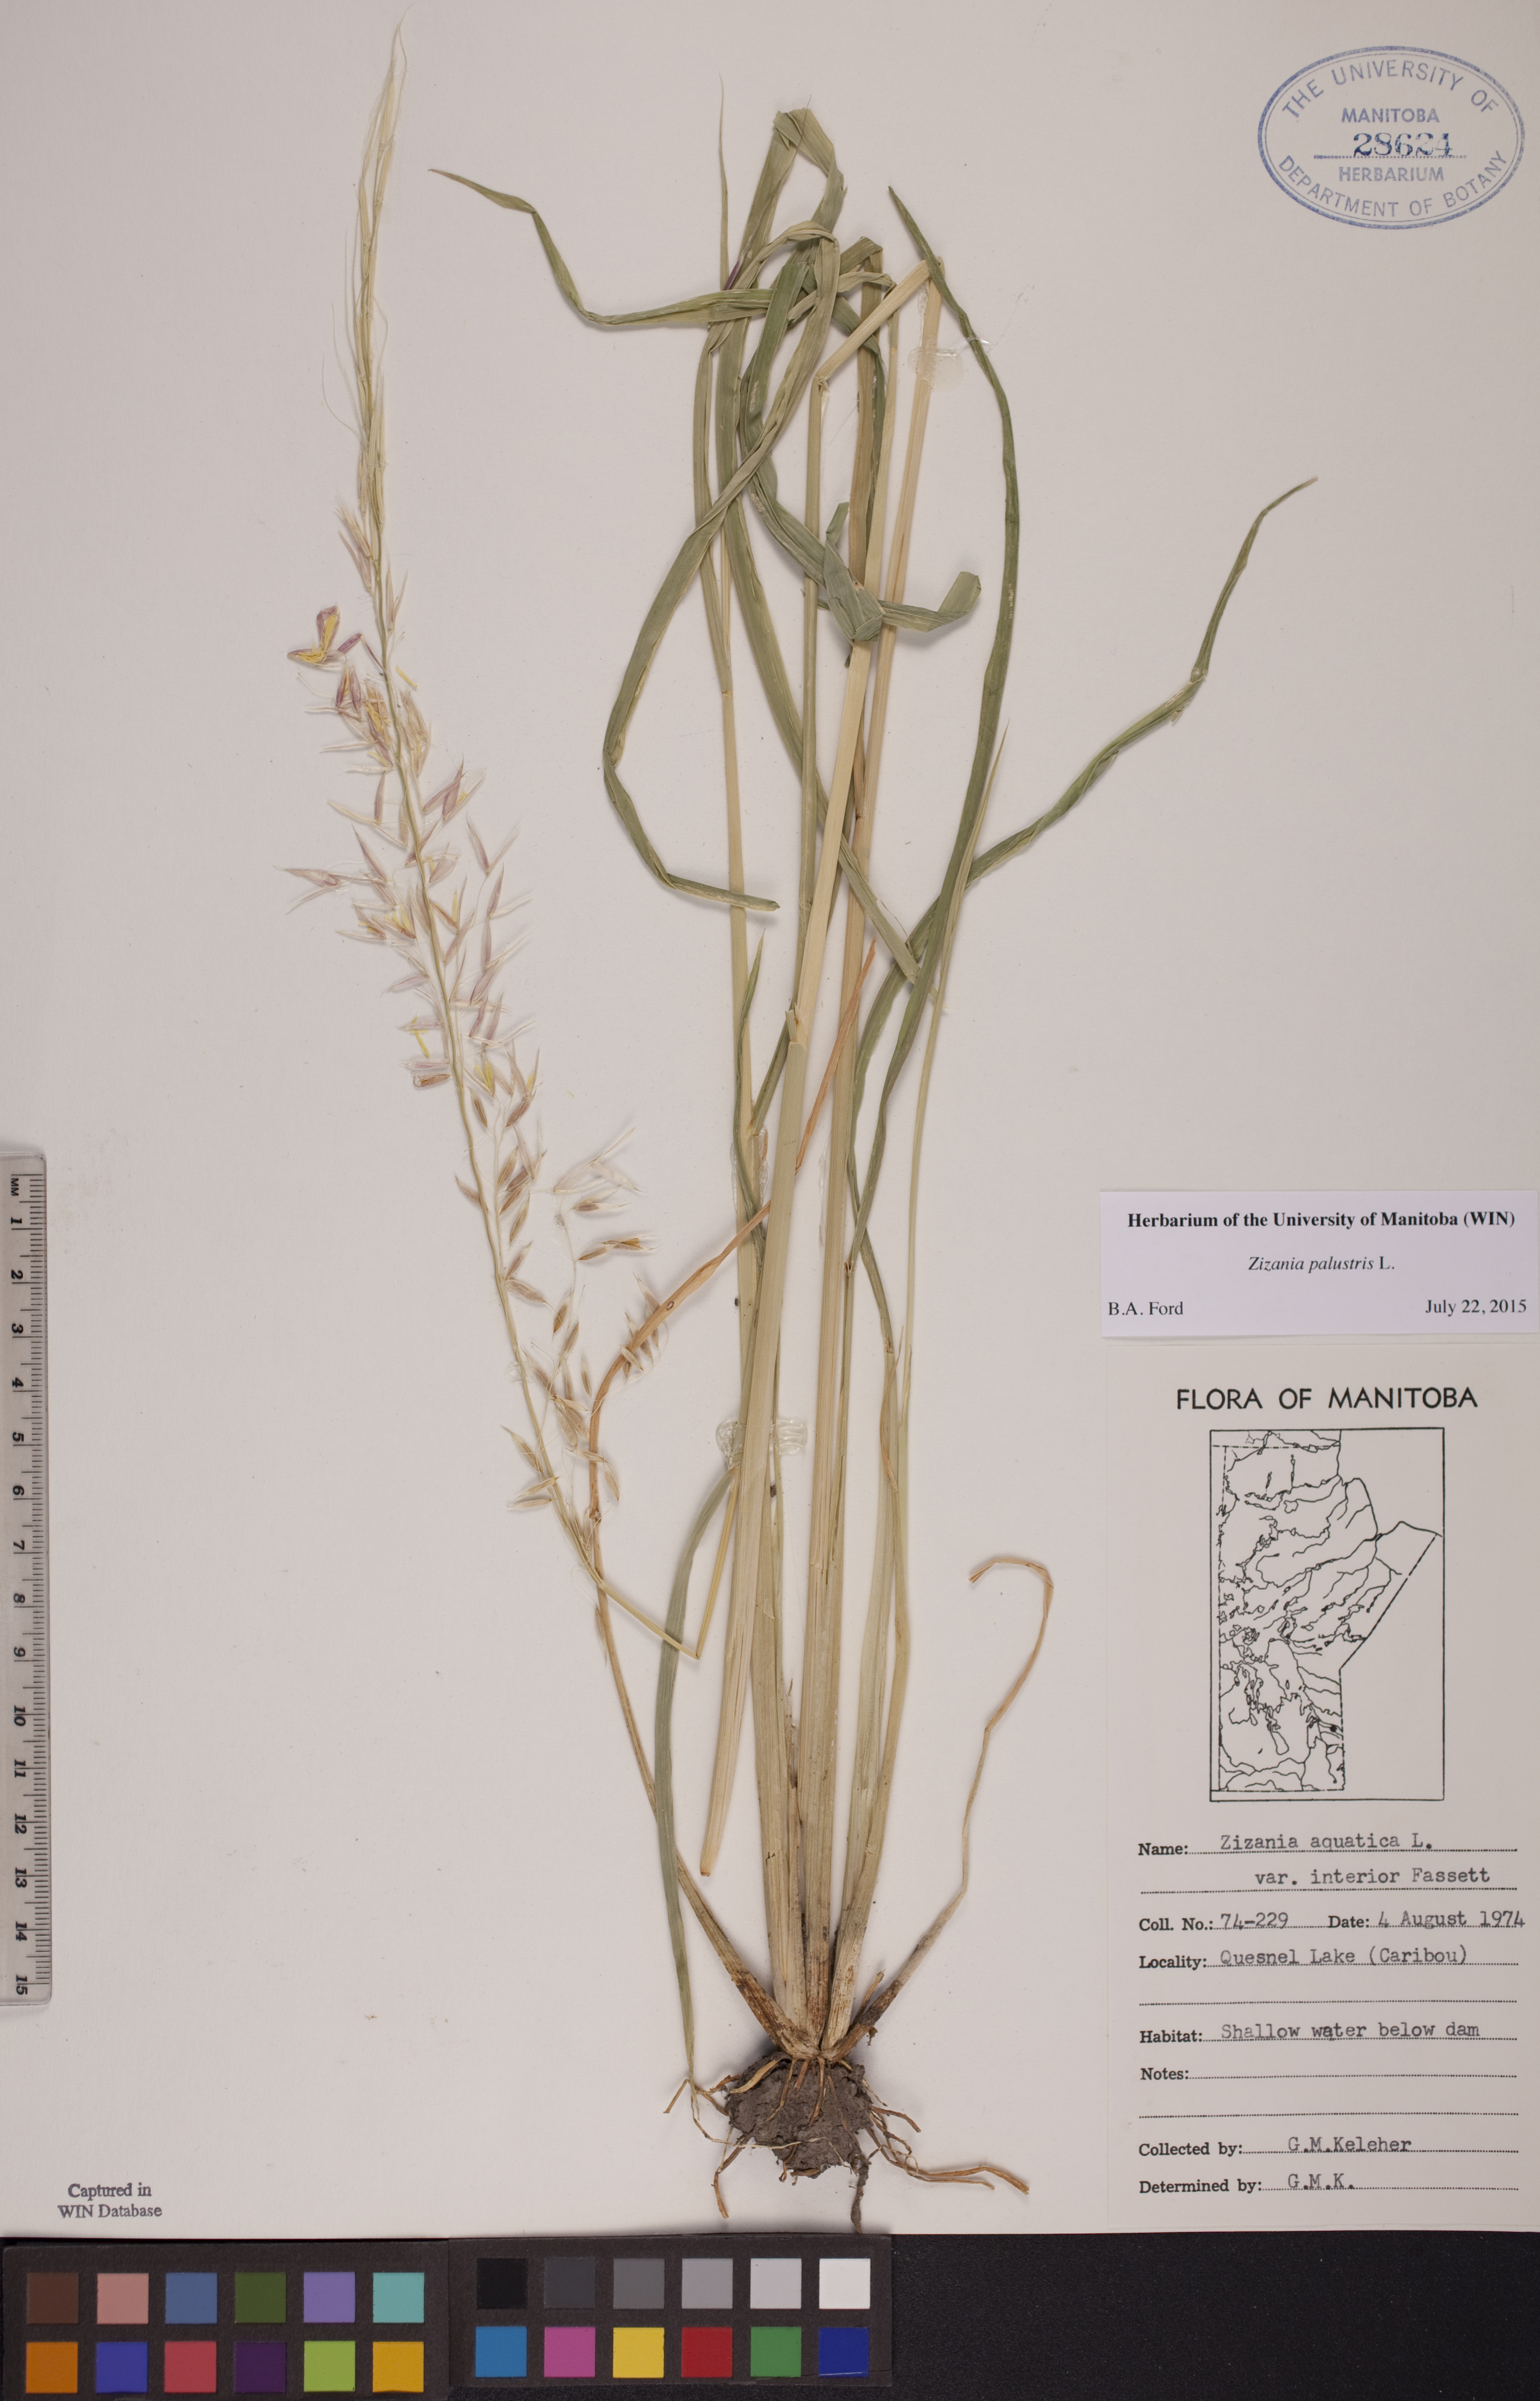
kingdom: Plantae
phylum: Tracheophyta
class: Liliopsida
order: Poales
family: Poaceae
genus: Zizania
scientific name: Zizania palustris
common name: Northern wild rice
